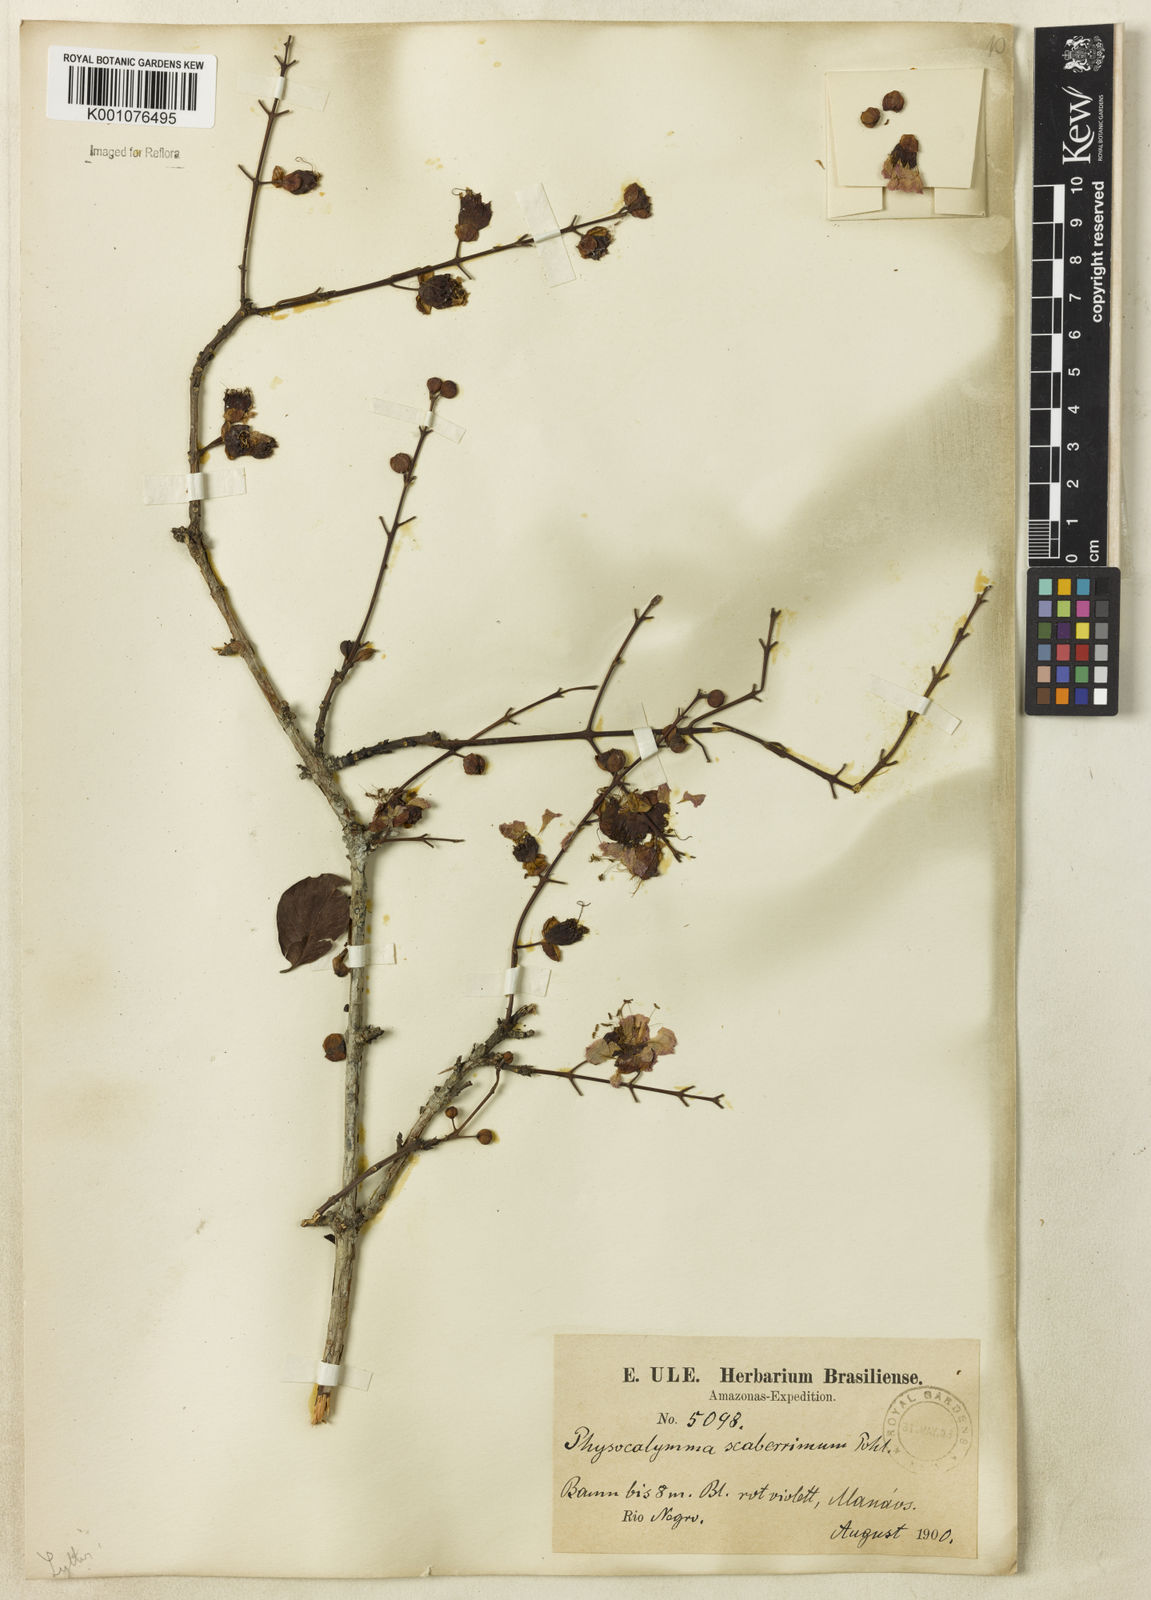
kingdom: Plantae
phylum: Tracheophyta
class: Magnoliopsida
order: Myrtales
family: Lythraceae
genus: Physocalymma
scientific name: Physocalymma scaberrimum
